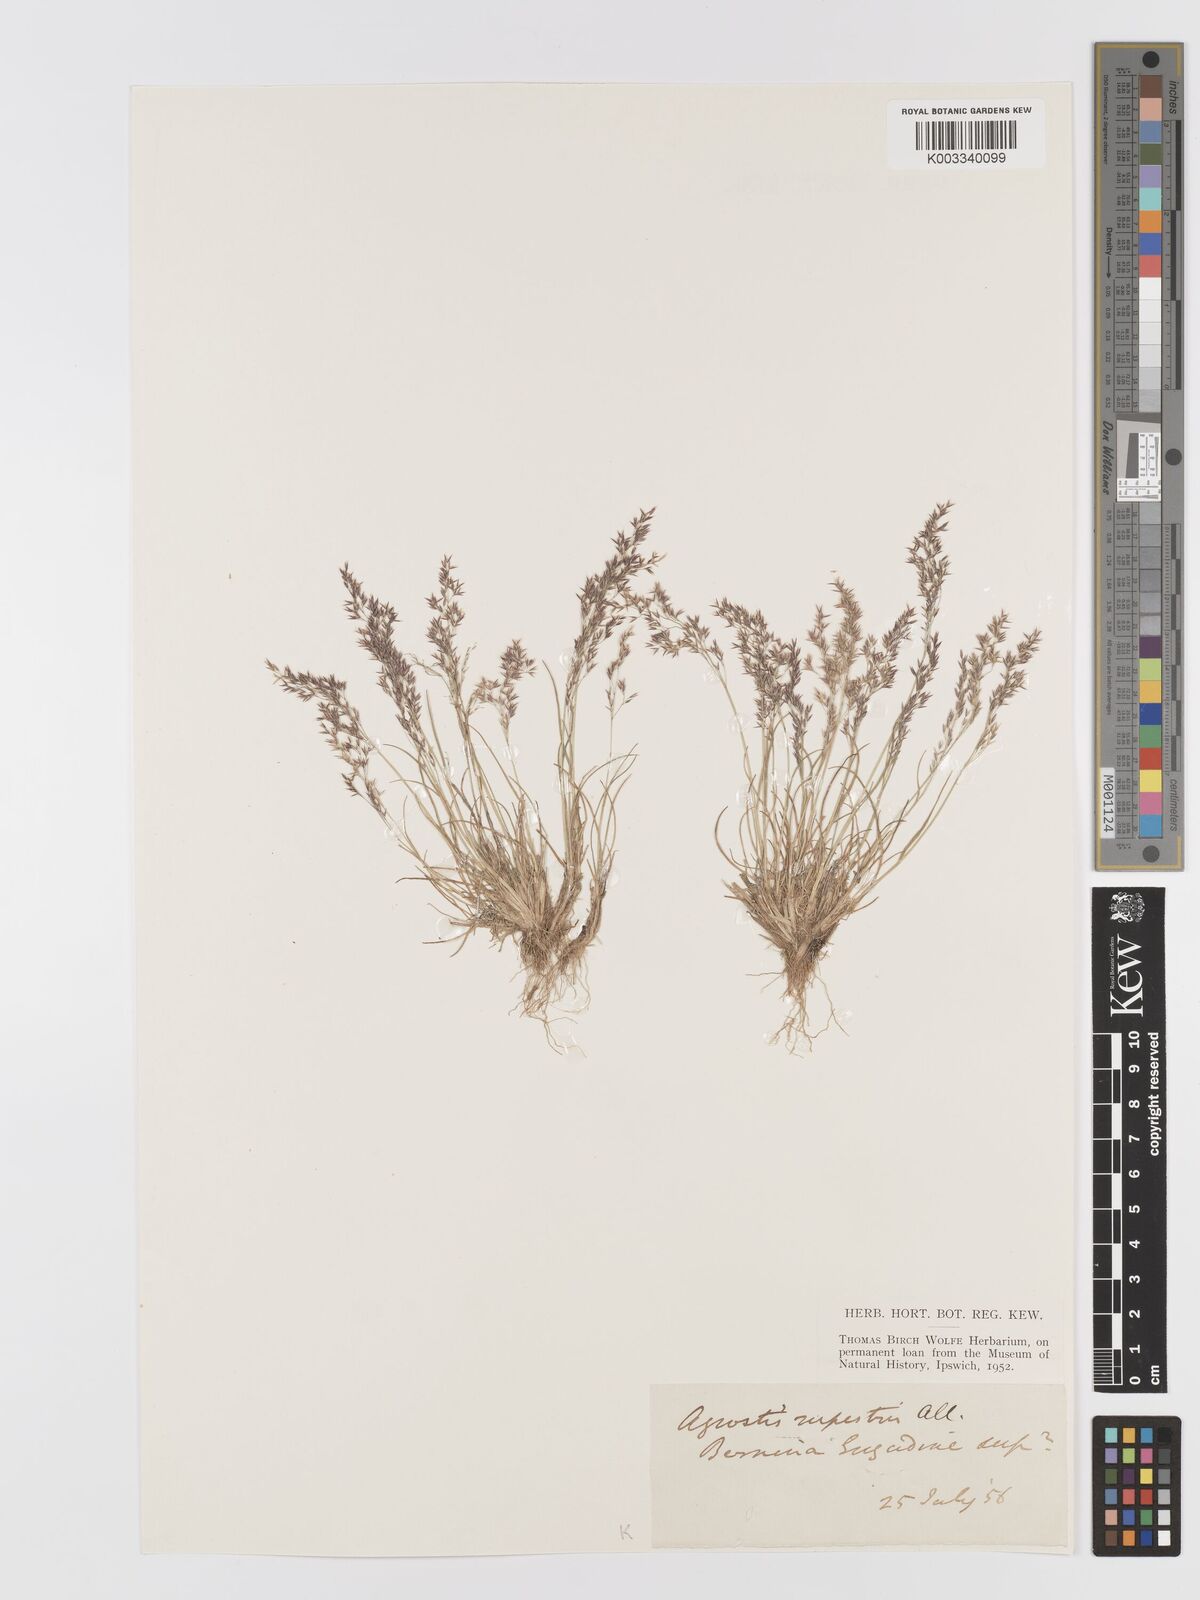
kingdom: Plantae
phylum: Tracheophyta
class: Liliopsida
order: Poales
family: Poaceae
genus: Agrostis
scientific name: Agrostis rupestris
